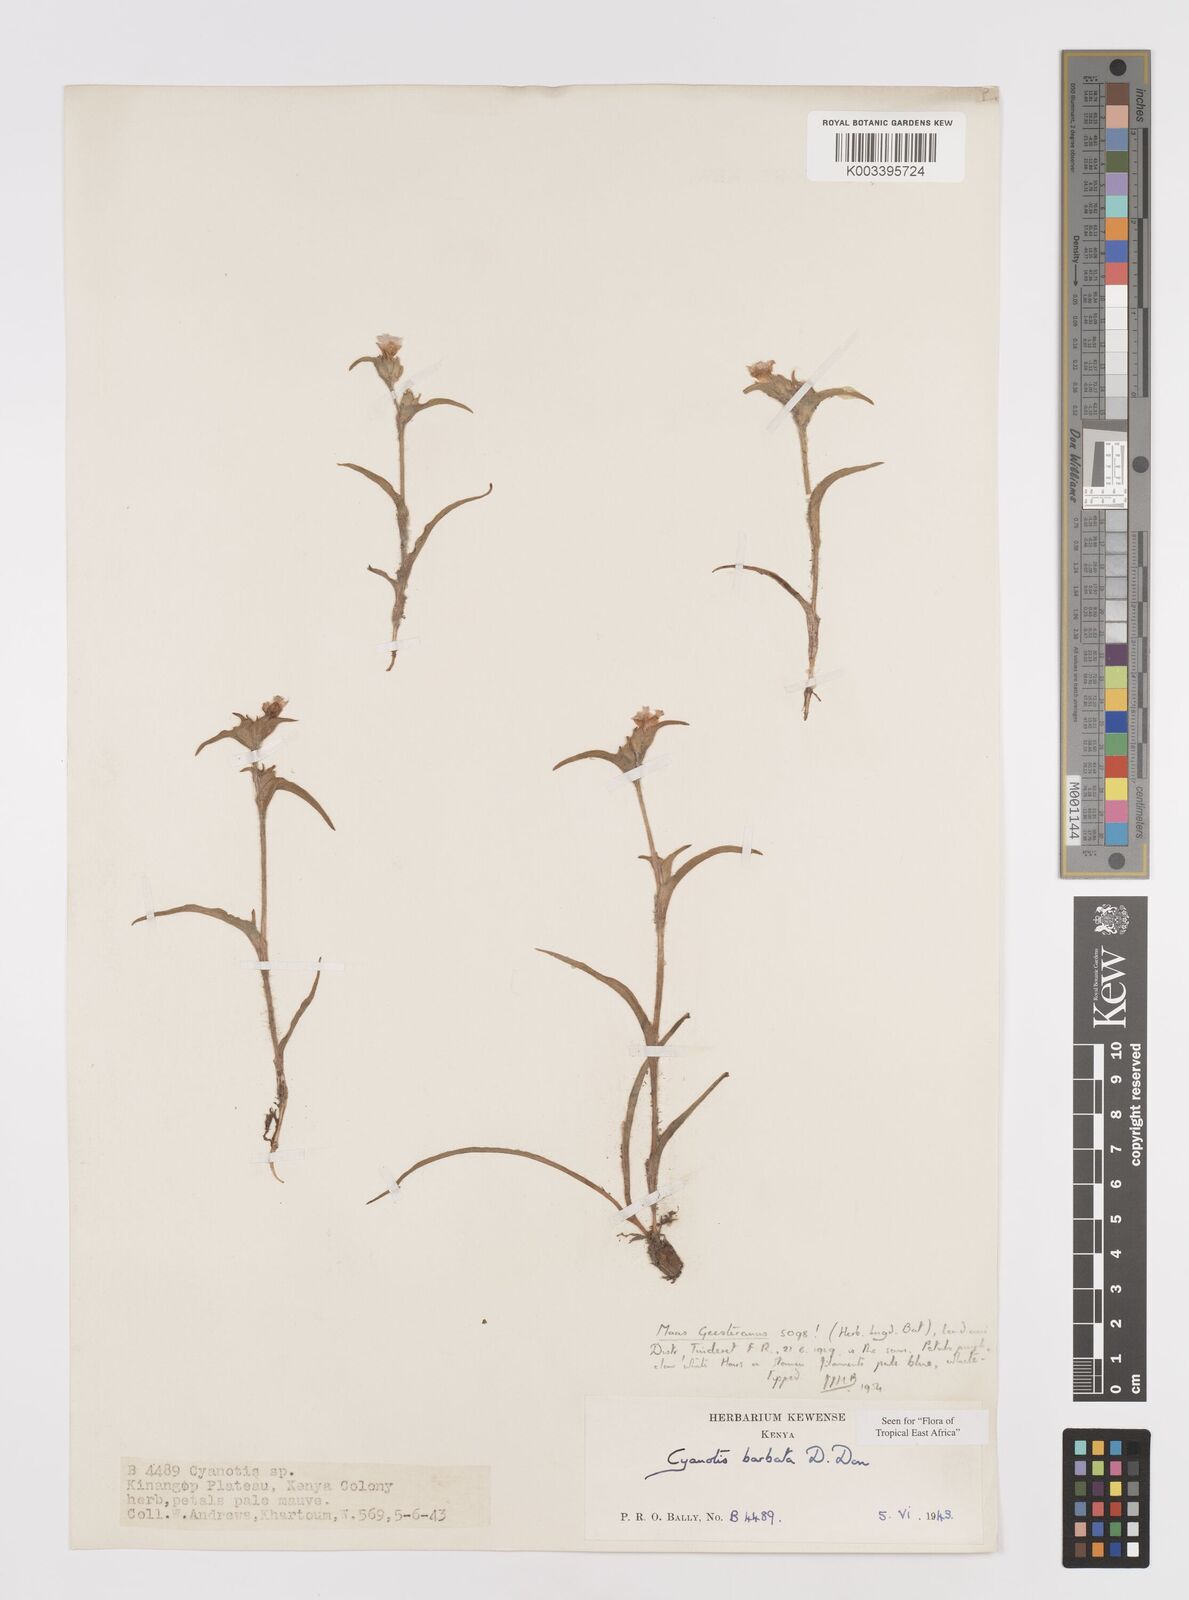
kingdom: Plantae
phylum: Tracheophyta
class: Liliopsida
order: Commelinales
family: Commelinaceae
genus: Cyanotis
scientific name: Cyanotis vaga
